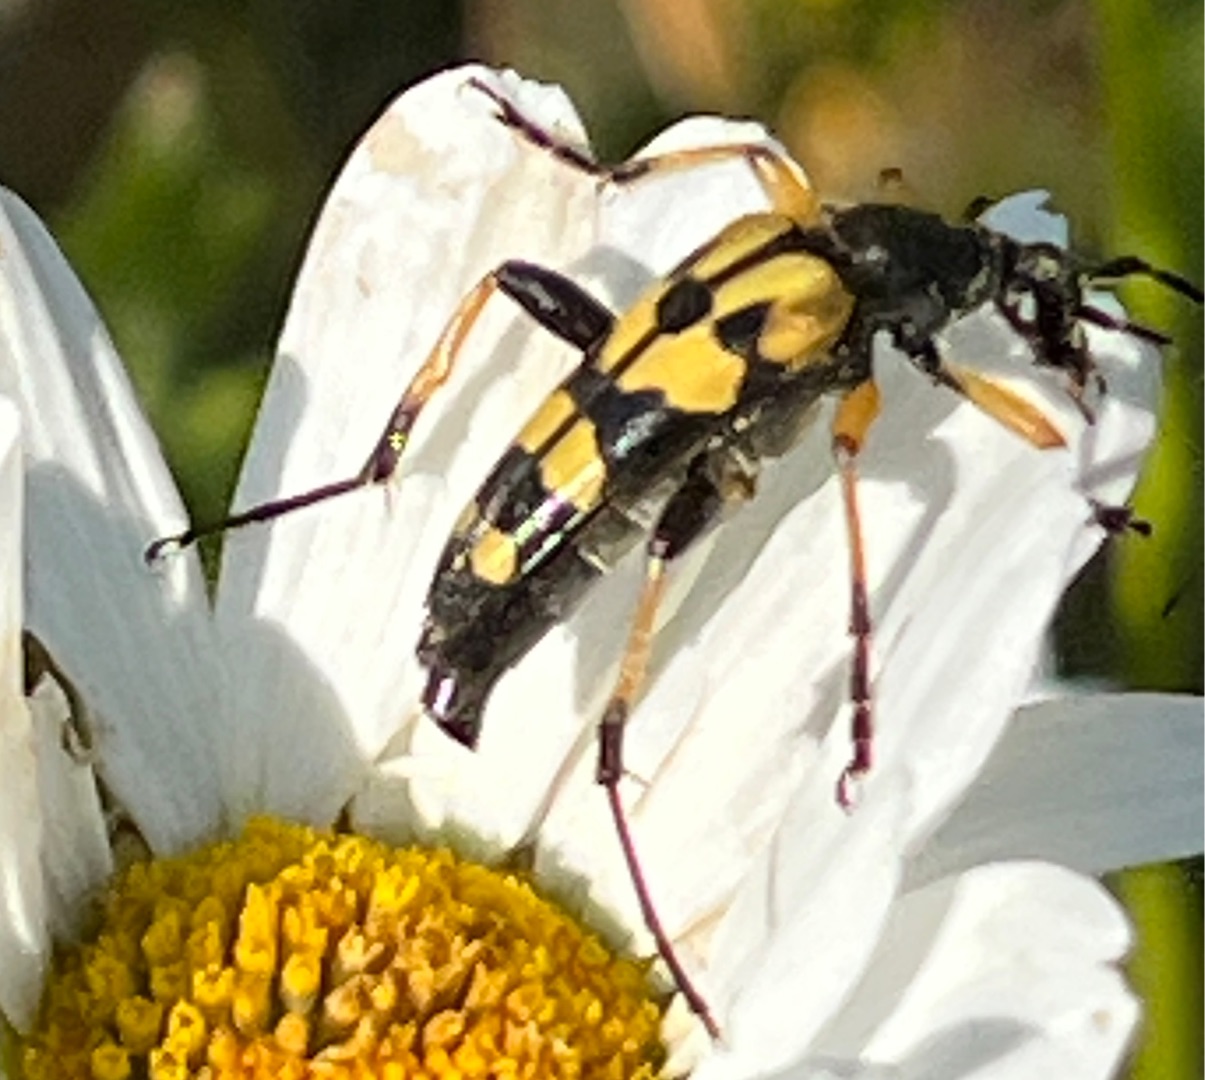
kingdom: Animalia
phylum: Arthropoda
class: Insecta
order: Coleoptera
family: Cerambycidae
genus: Rutpela
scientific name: Rutpela maculata
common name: Sydlig blomsterbuk
